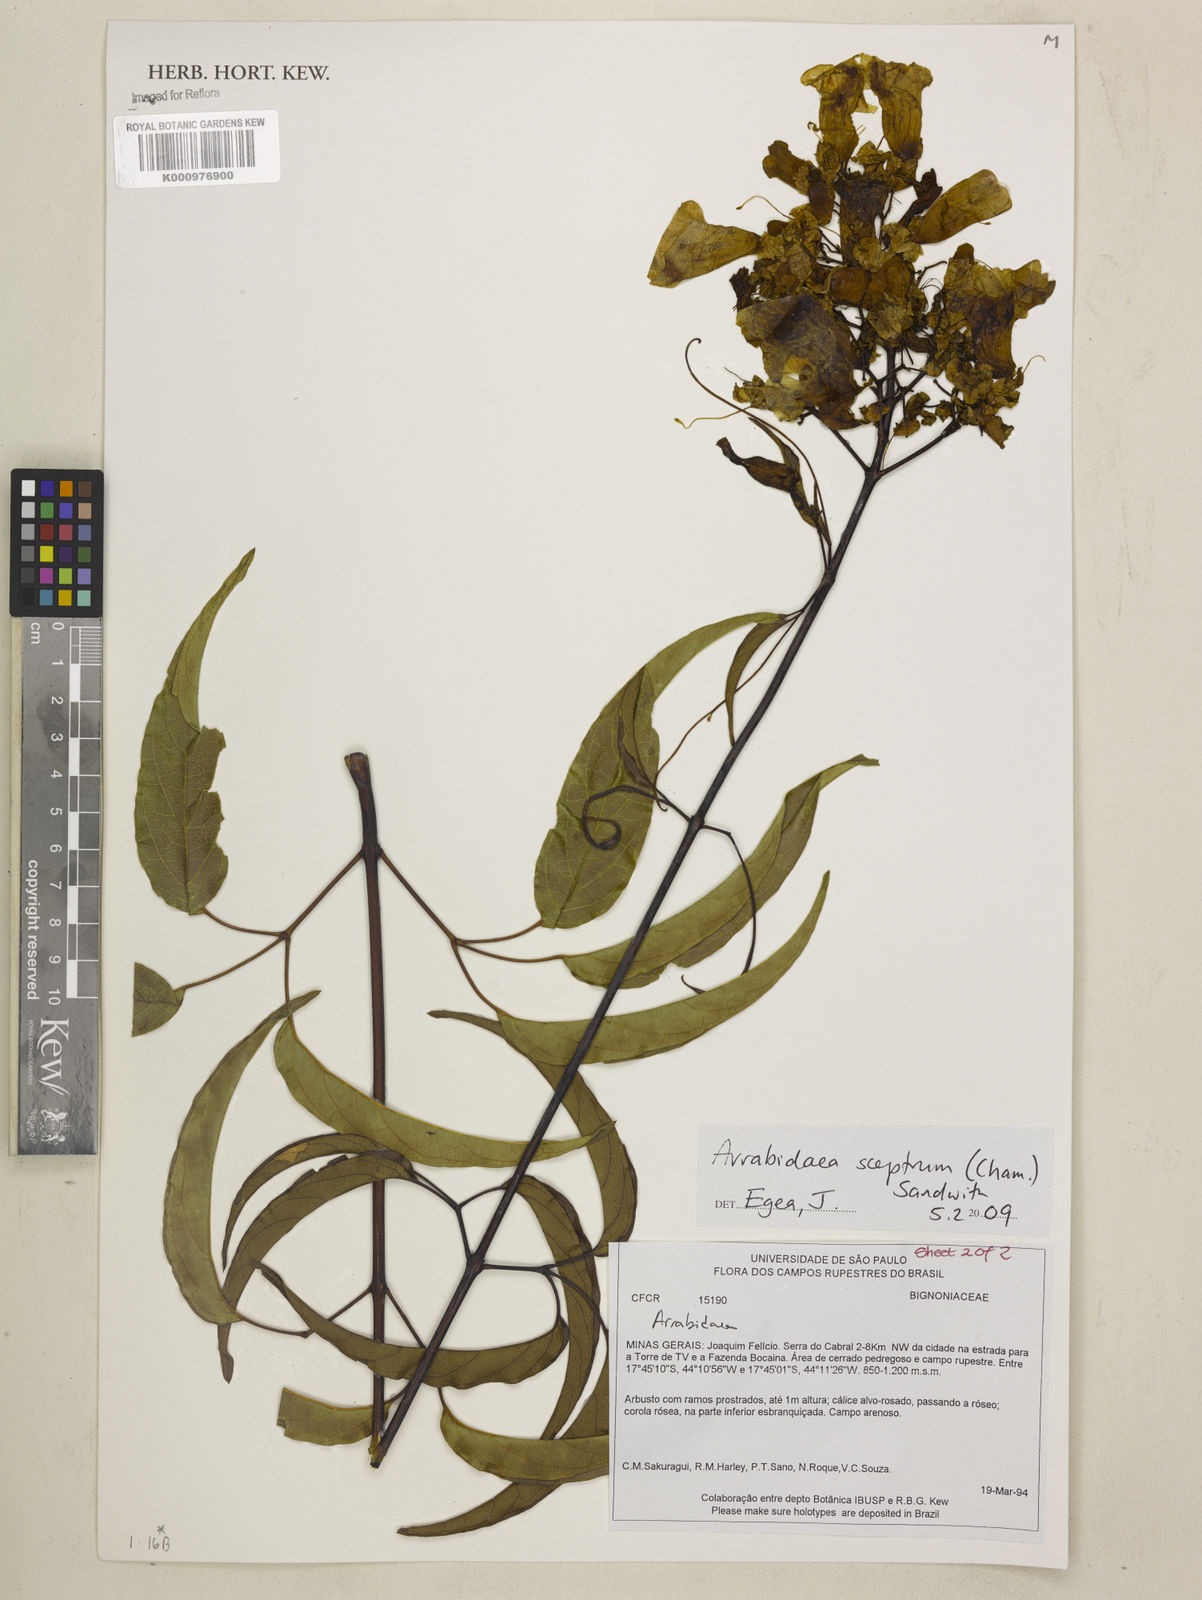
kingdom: Plantae
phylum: Tracheophyta
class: Magnoliopsida
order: Lamiales
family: Bignoniaceae
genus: Cuspidaria
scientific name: Cuspidaria sceptrum
